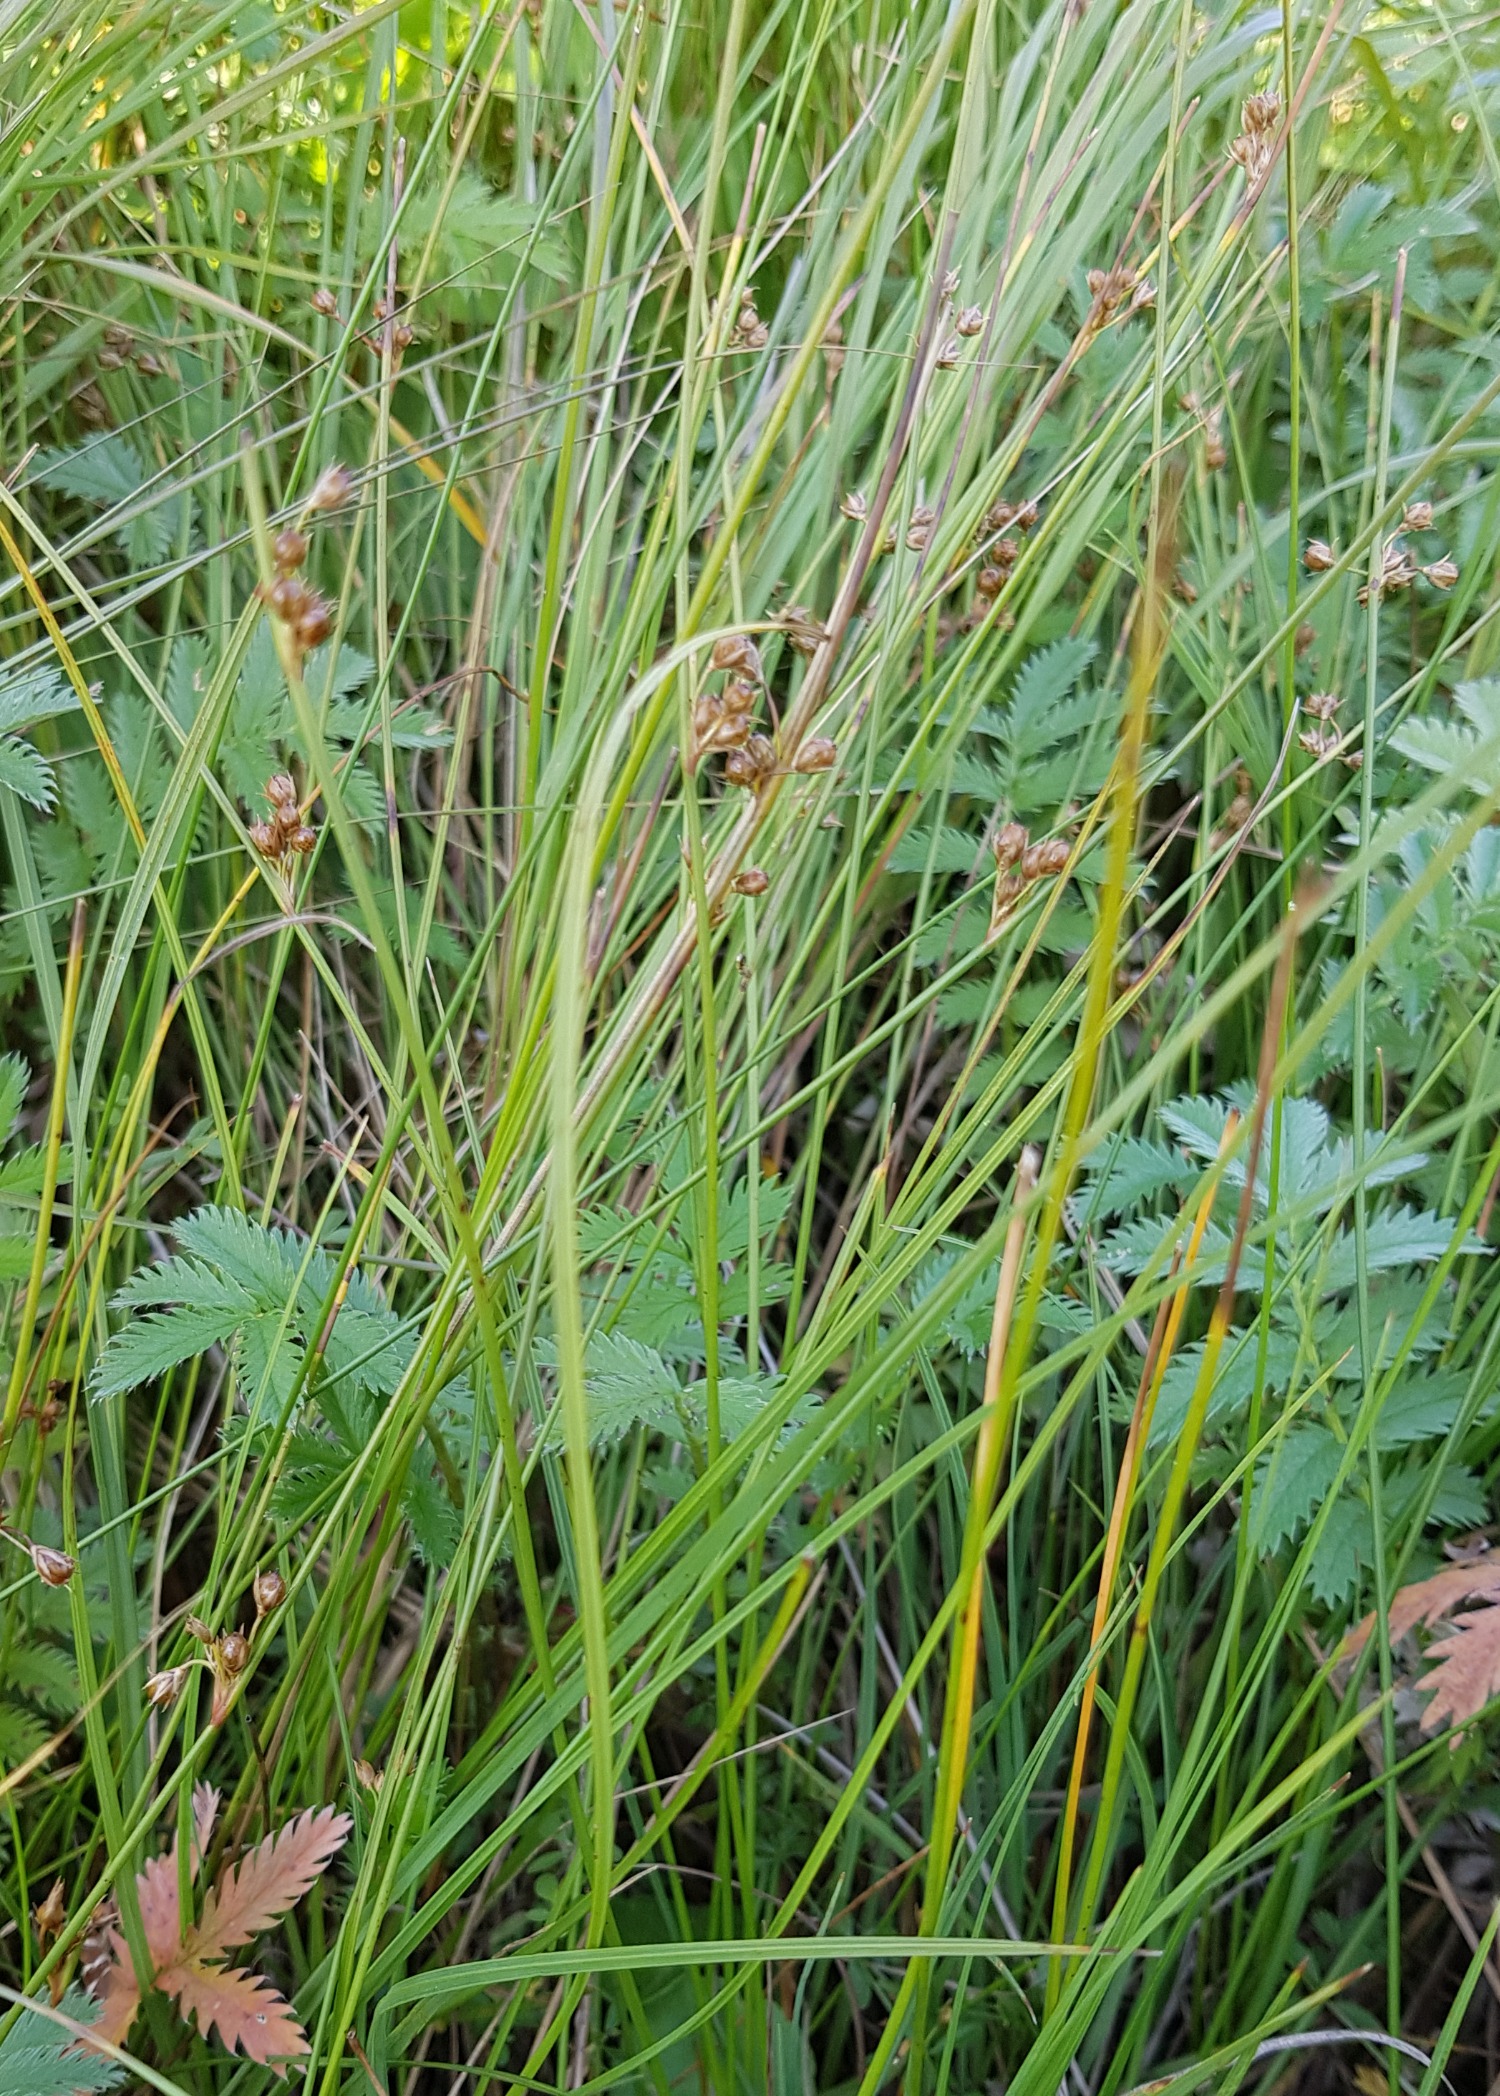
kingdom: Plantae
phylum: Tracheophyta
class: Liliopsida
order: Poales
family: Juncaceae
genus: Juncus
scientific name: Juncus filiformis
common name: Tråd-siv
